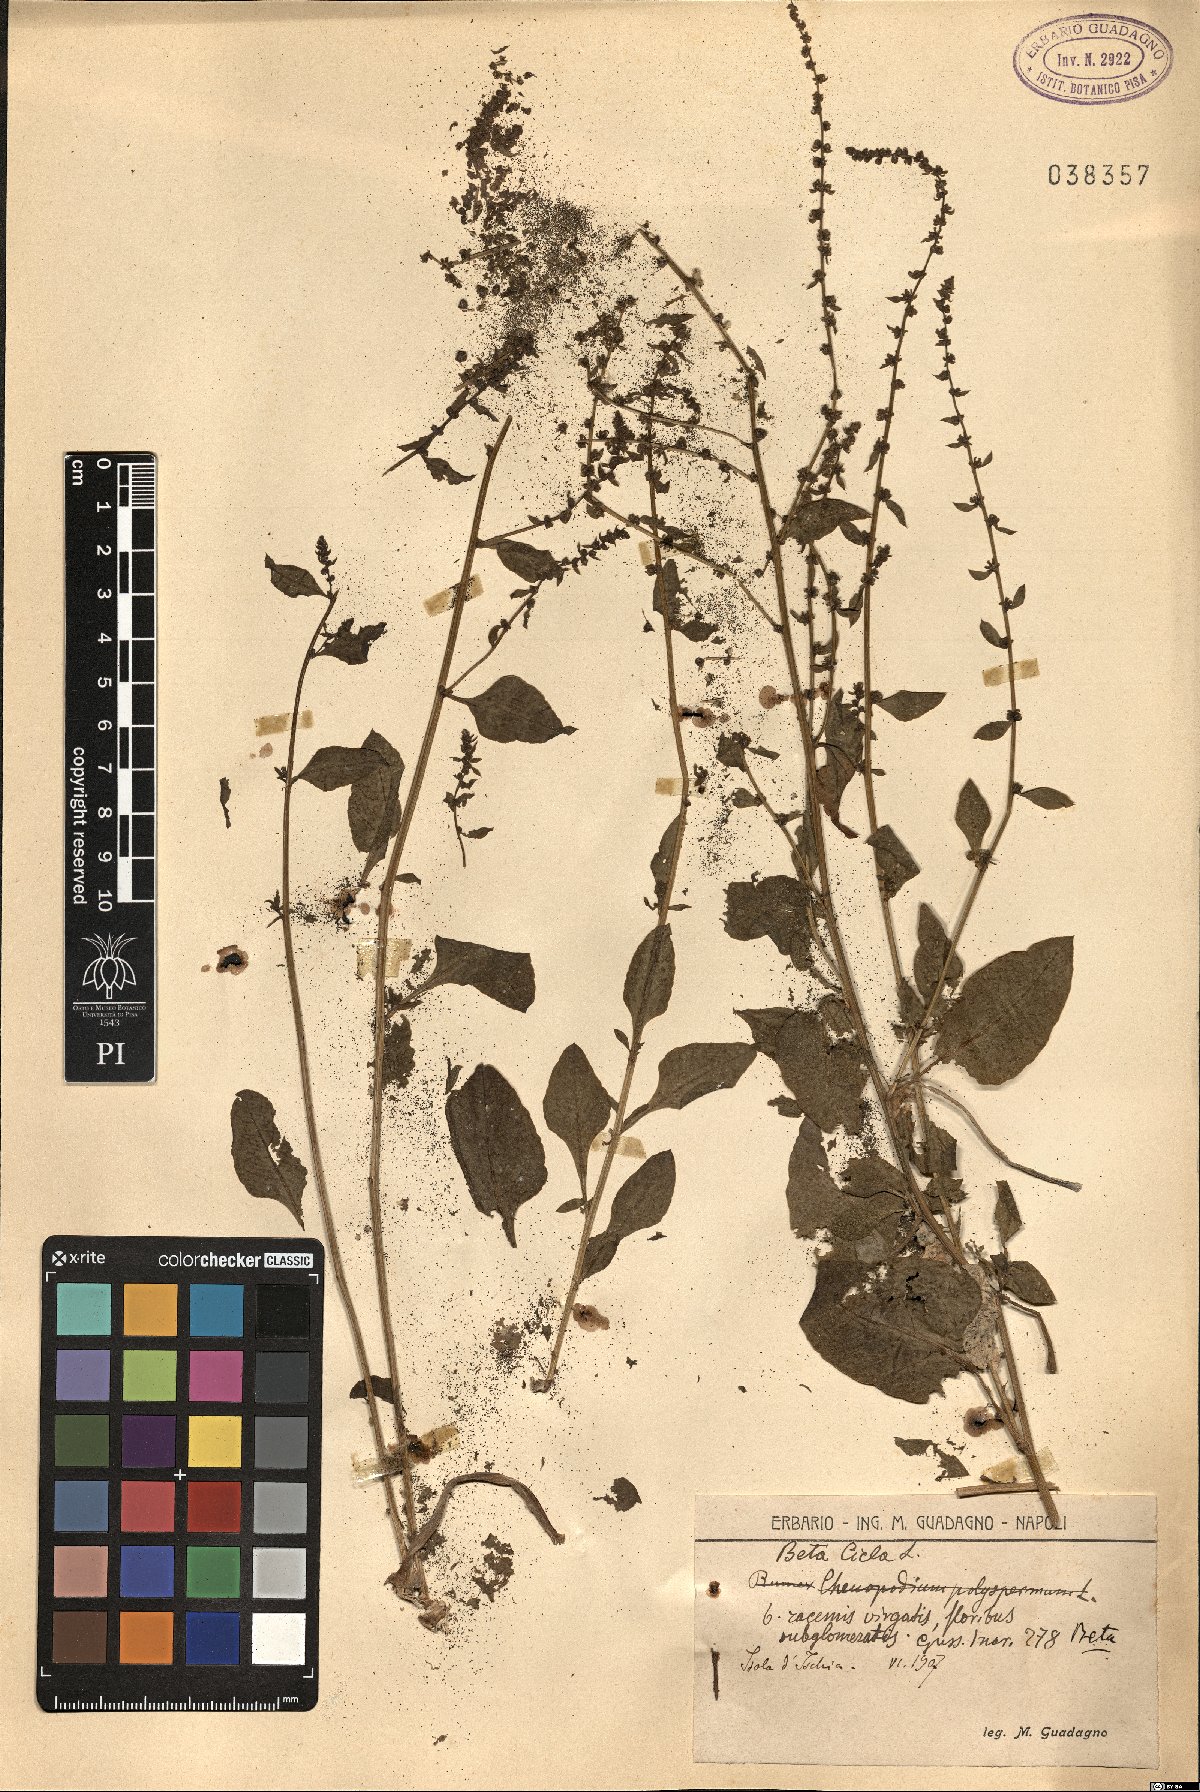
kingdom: Plantae
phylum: Tracheophyta
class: Magnoliopsida
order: Caryophyllales
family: Amaranthaceae
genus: Beta
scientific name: Beta vulgaris
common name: Beet
